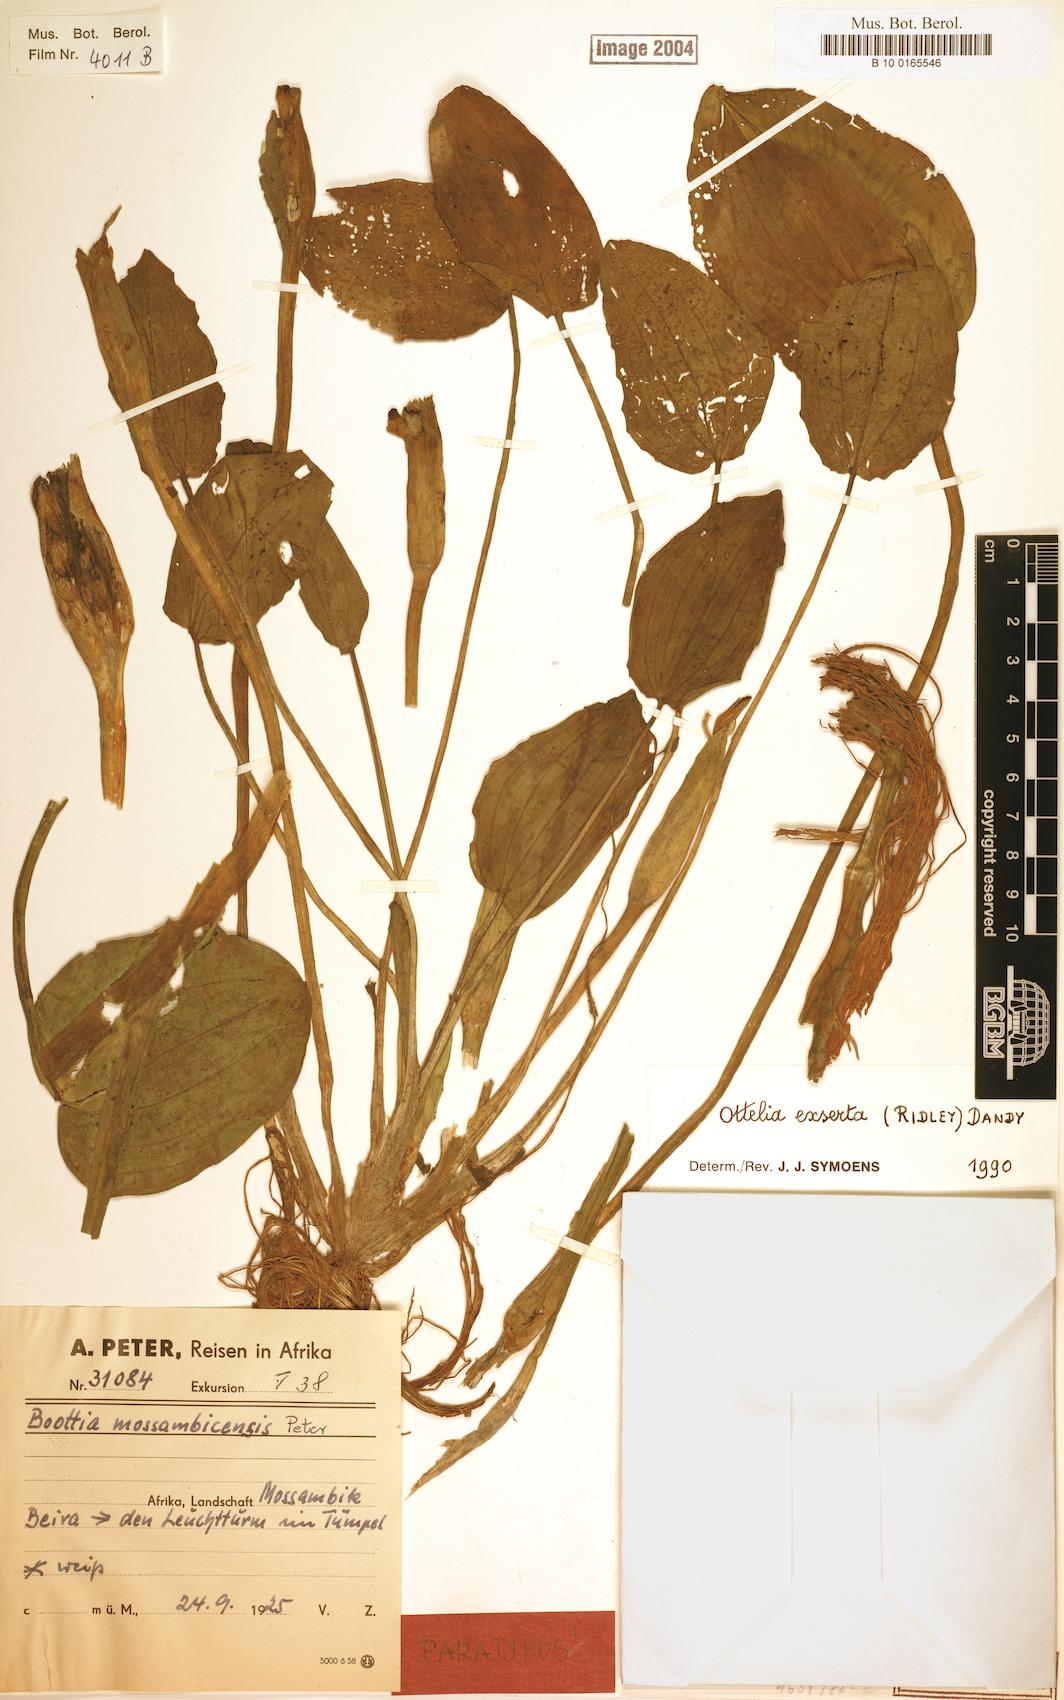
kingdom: Plantae
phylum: Tracheophyta
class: Liliopsida
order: Alismatales
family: Hydrocharitaceae
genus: Ottelia
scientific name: Ottelia exserta
